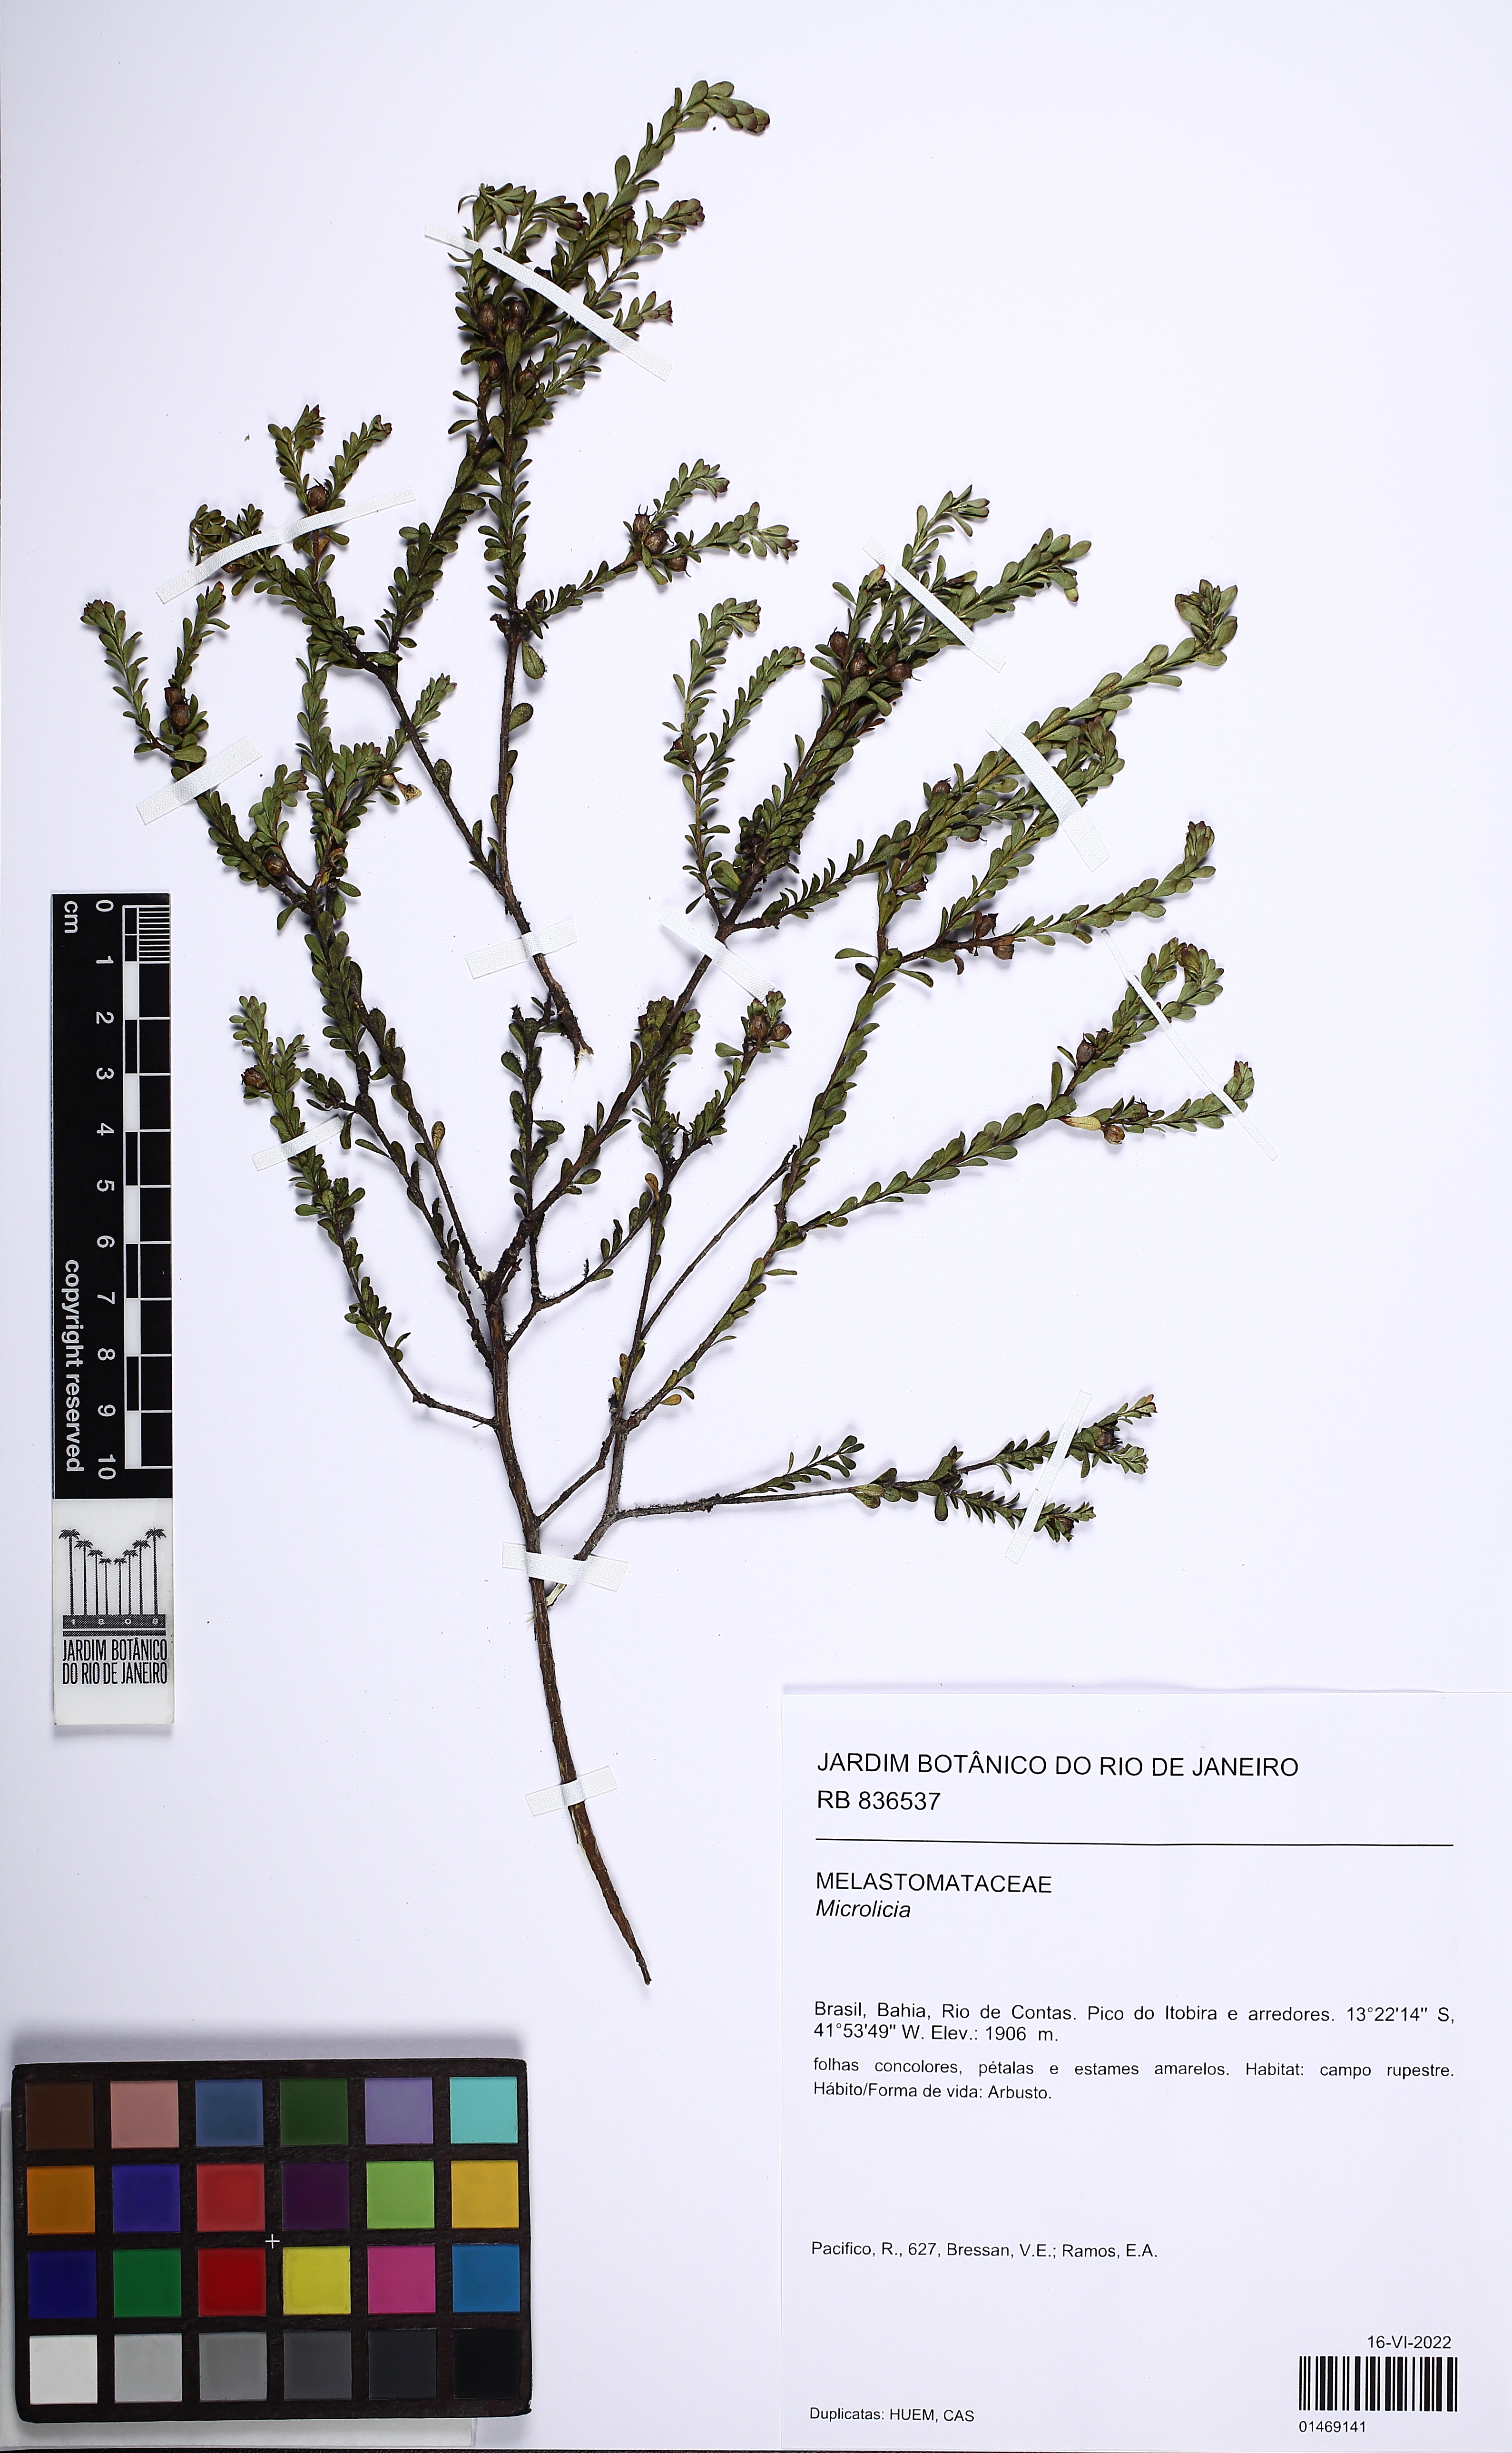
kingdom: Plantae
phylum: Tracheophyta
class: Magnoliopsida
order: Myrtales
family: Melastomataceae
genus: Microlicia
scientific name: Microlicia
